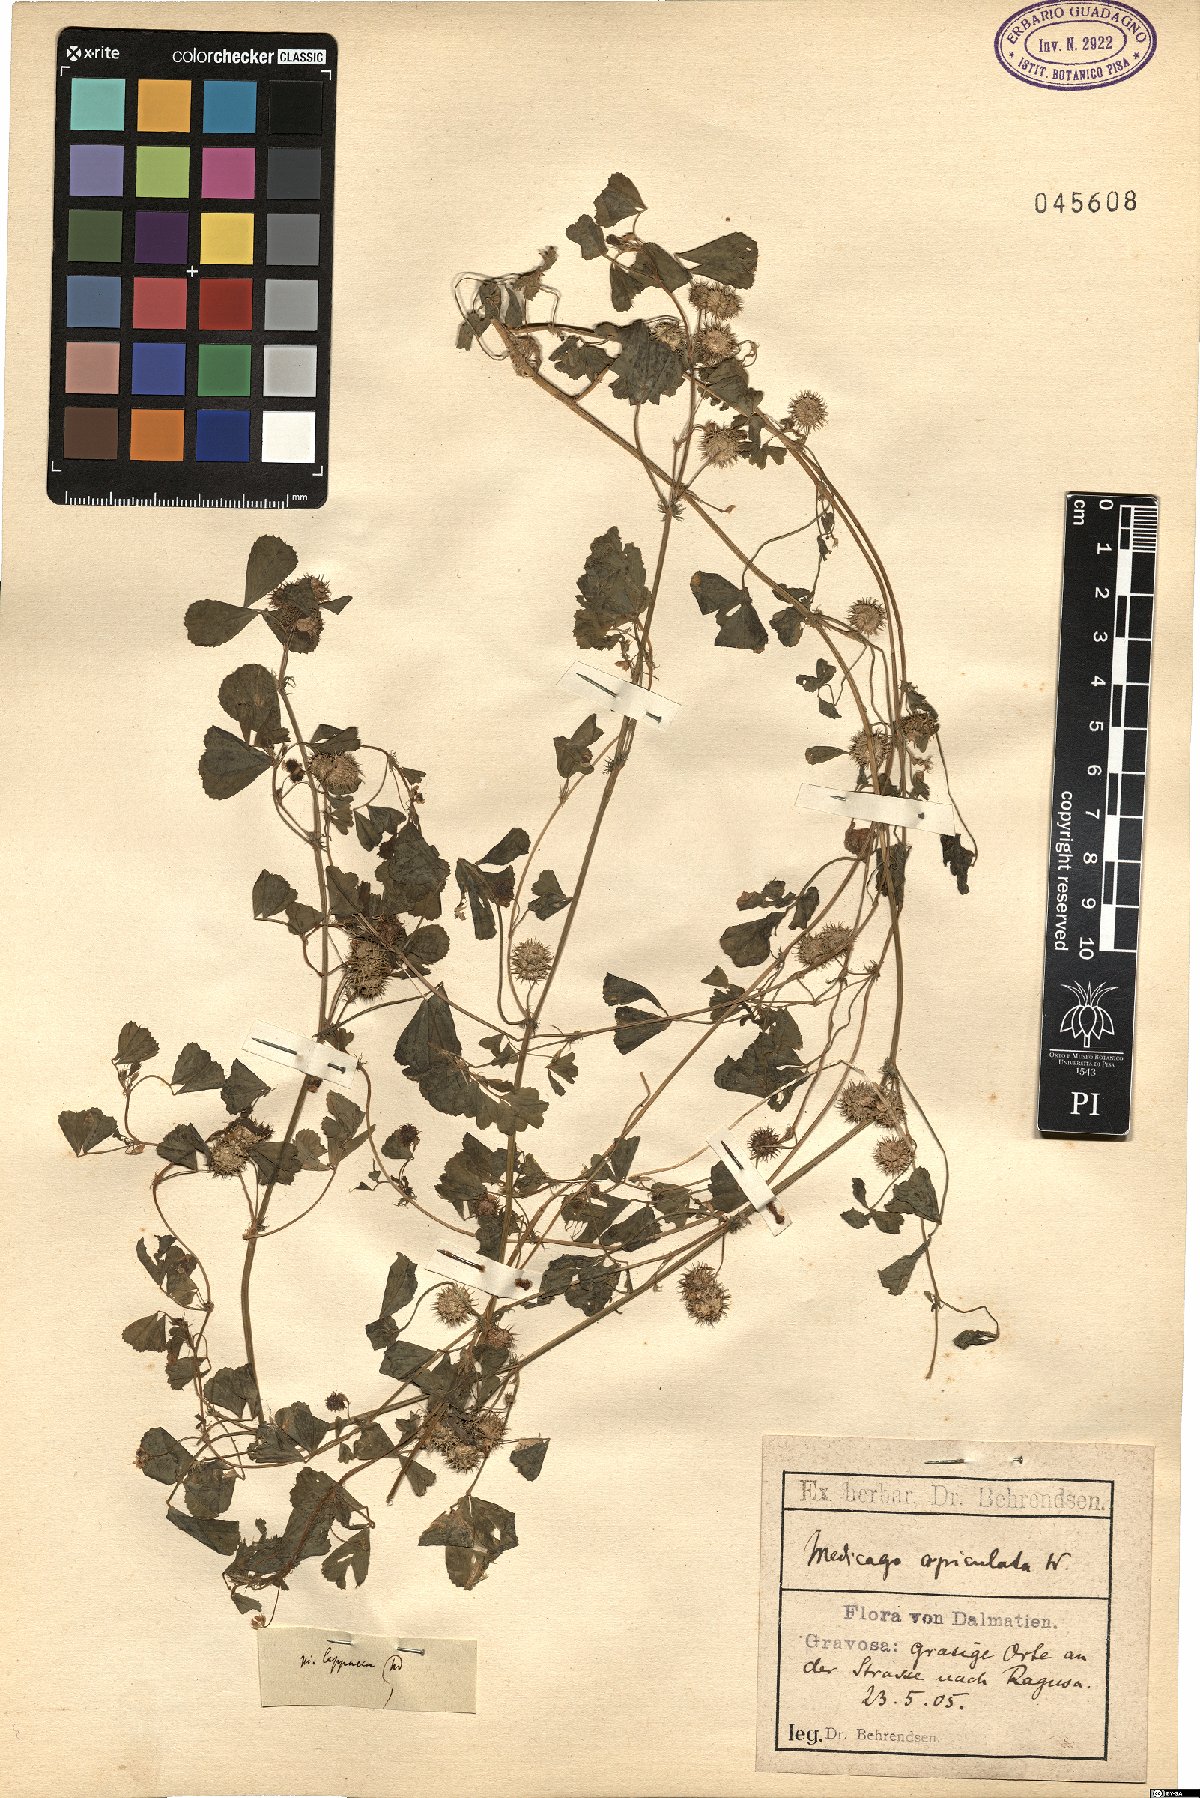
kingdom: Plantae
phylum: Tracheophyta
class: Magnoliopsida
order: Fabales
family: Fabaceae
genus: Medicago
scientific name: Medicago polymorpha
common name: Burclover
